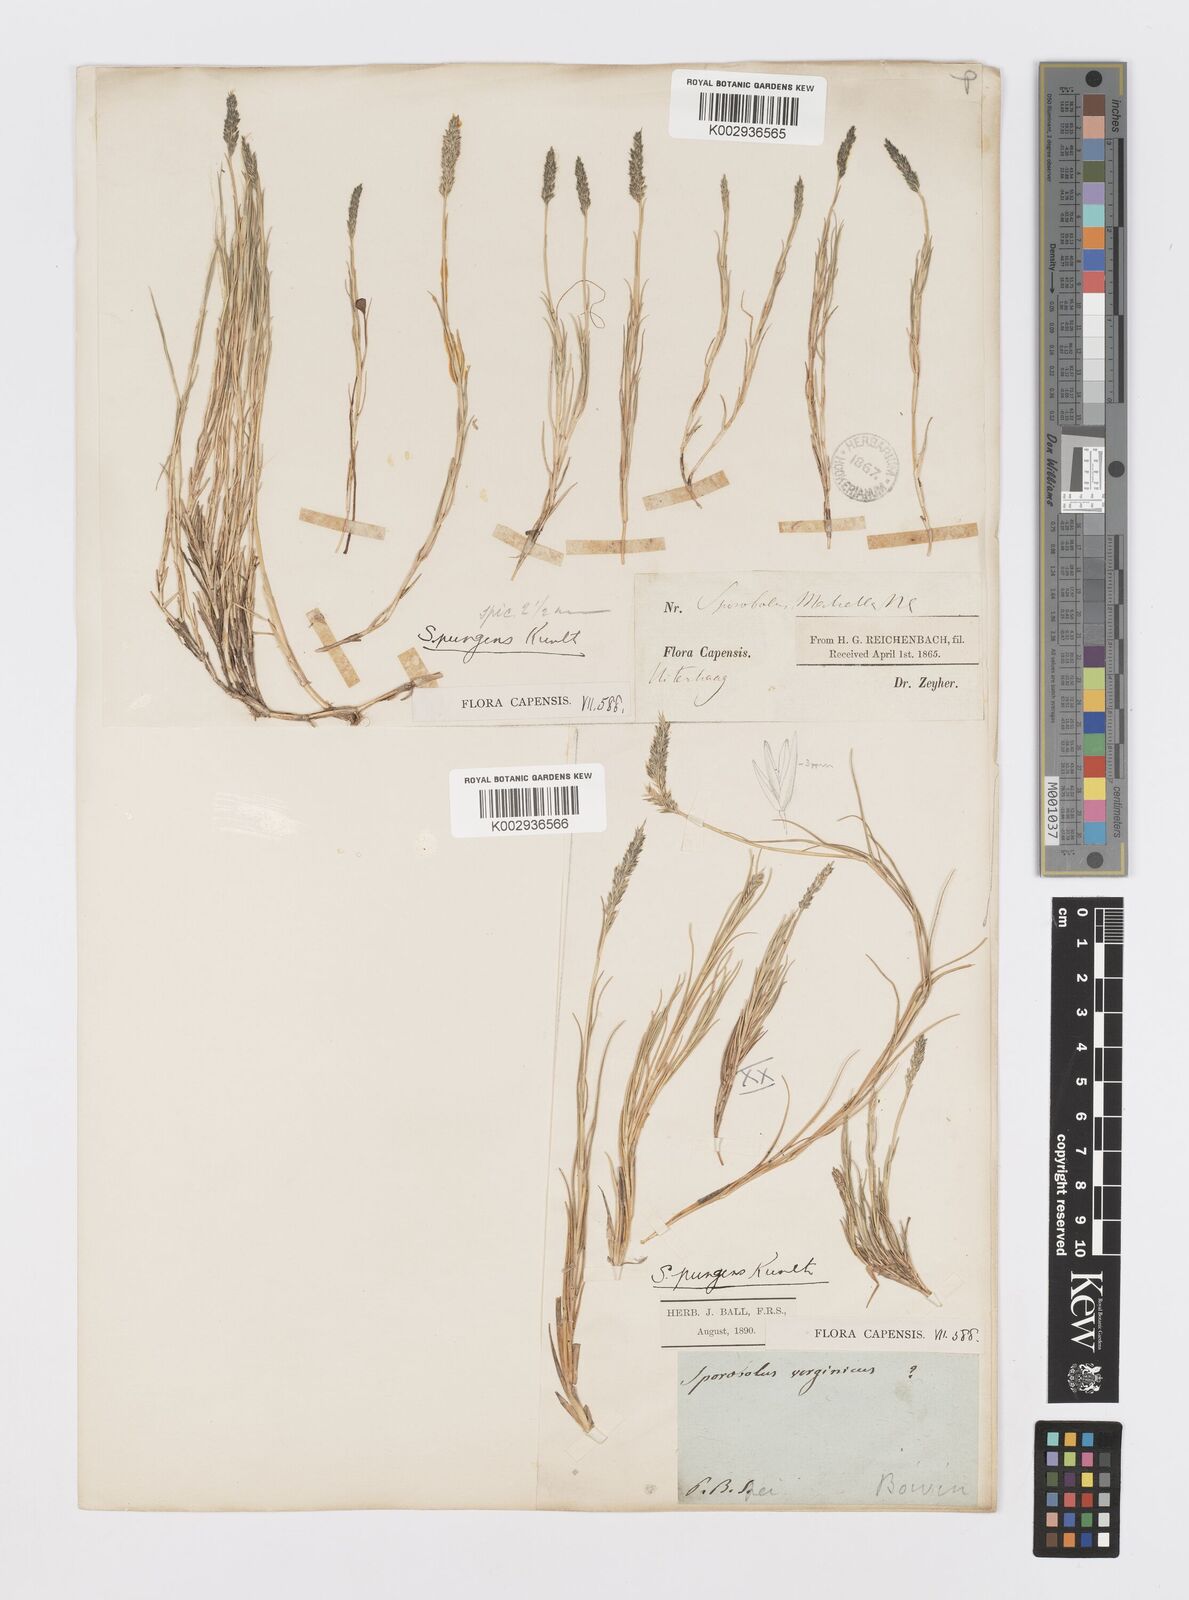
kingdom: Plantae
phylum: Tracheophyta
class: Liliopsida
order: Poales
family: Poaceae
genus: Sporobolus
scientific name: Sporobolus virginicus
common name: Beach dropseed
